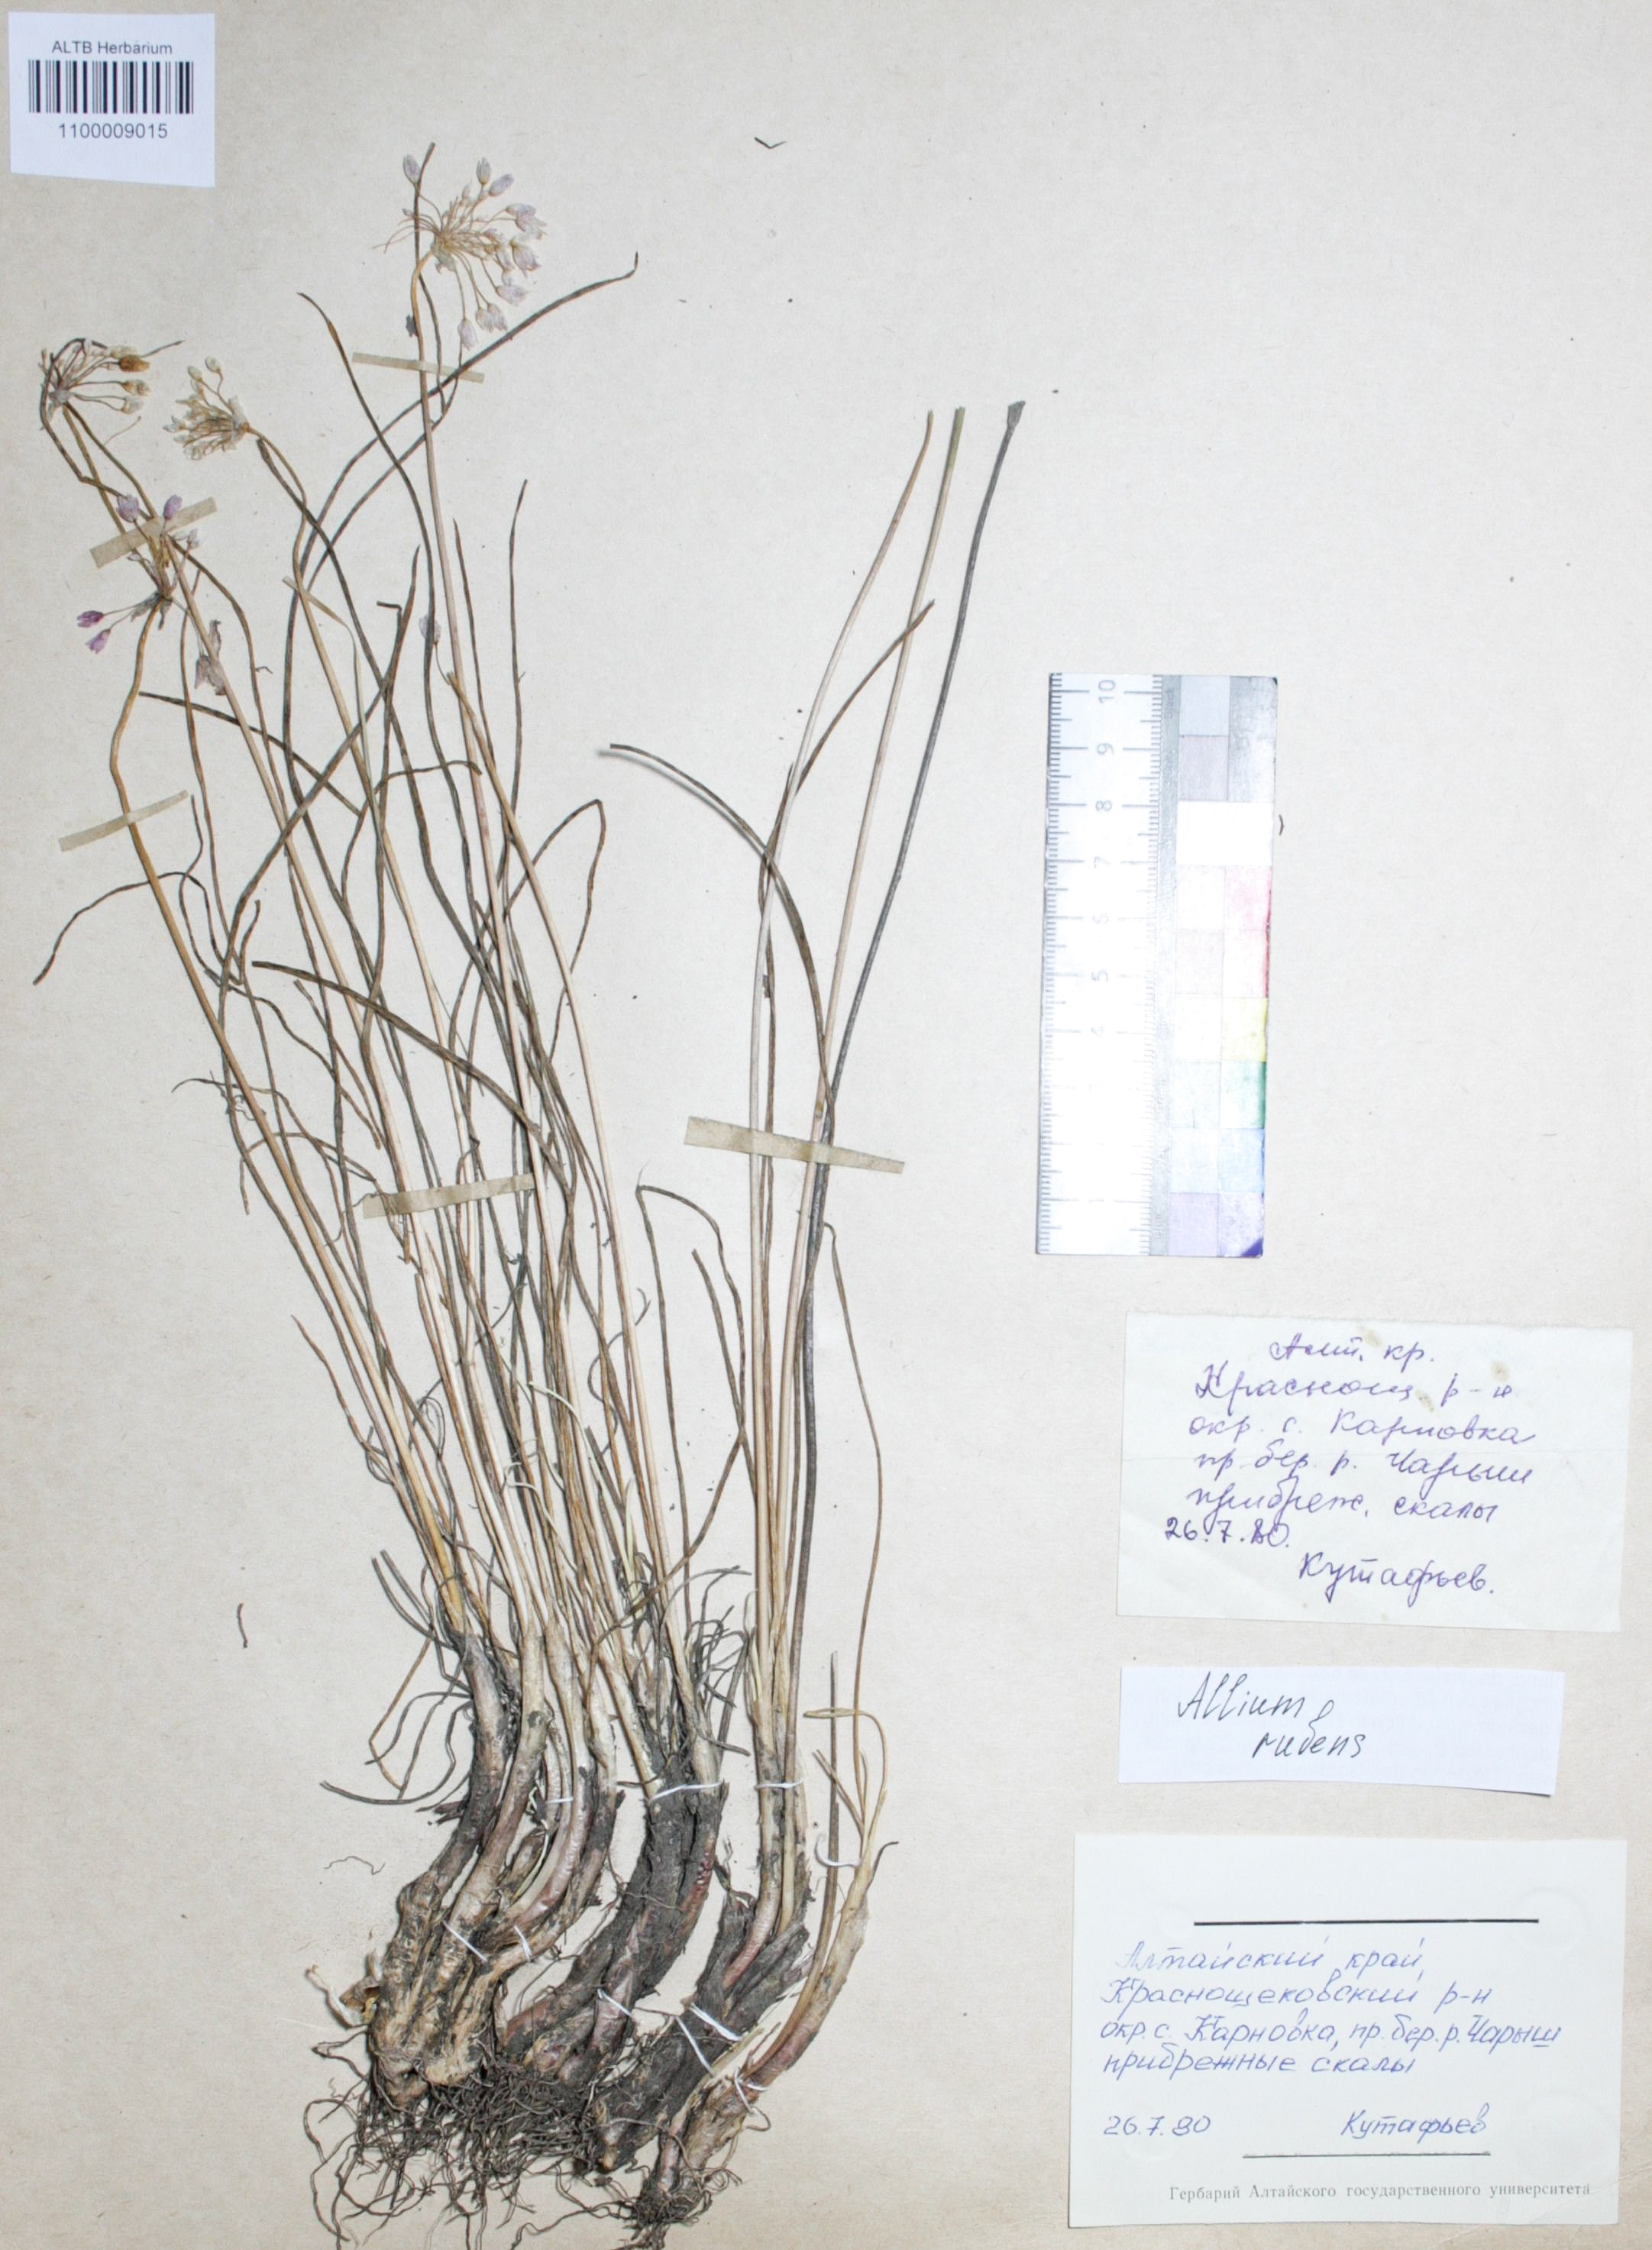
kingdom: Plantae
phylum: Tracheophyta
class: Liliopsida
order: Asparagales
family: Amaryllidaceae
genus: Allium
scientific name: Allium rubens
